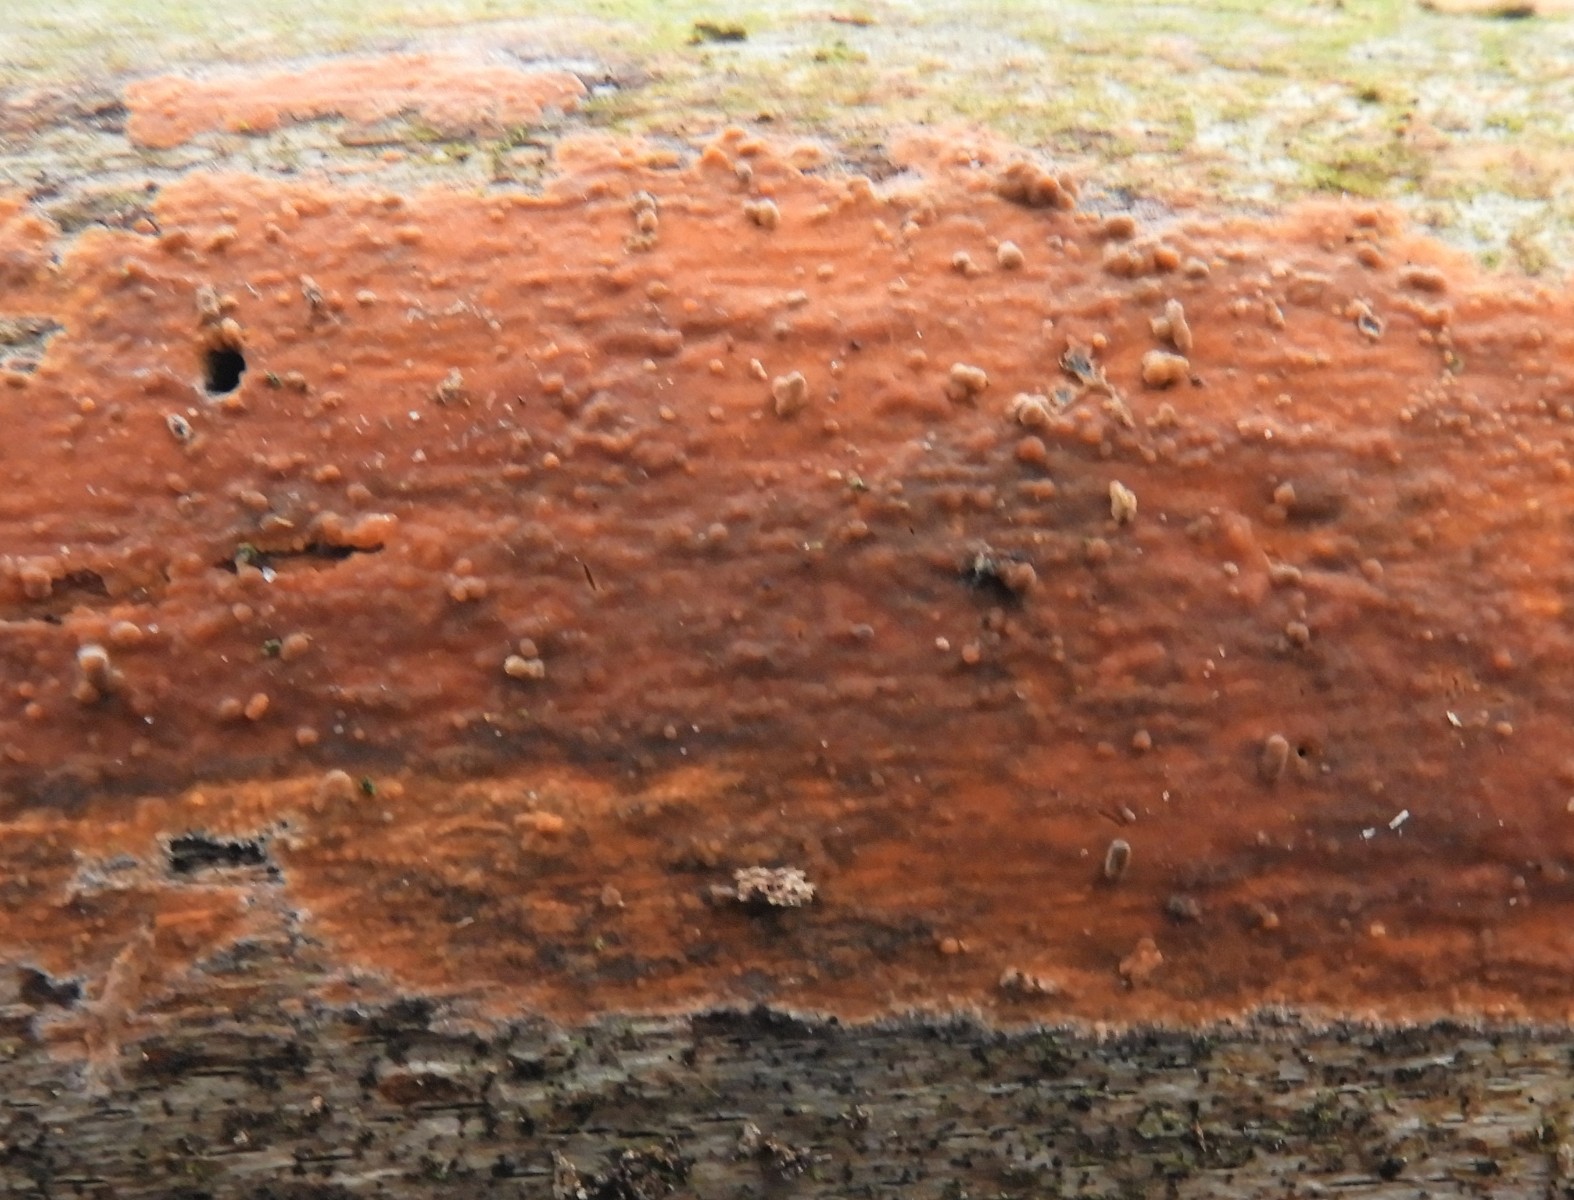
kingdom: Fungi
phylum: Basidiomycota
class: Agaricomycetes
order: Russulales
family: Peniophoraceae
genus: Peniophora
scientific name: Peniophora incarnata
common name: laksefarvet voksskind
